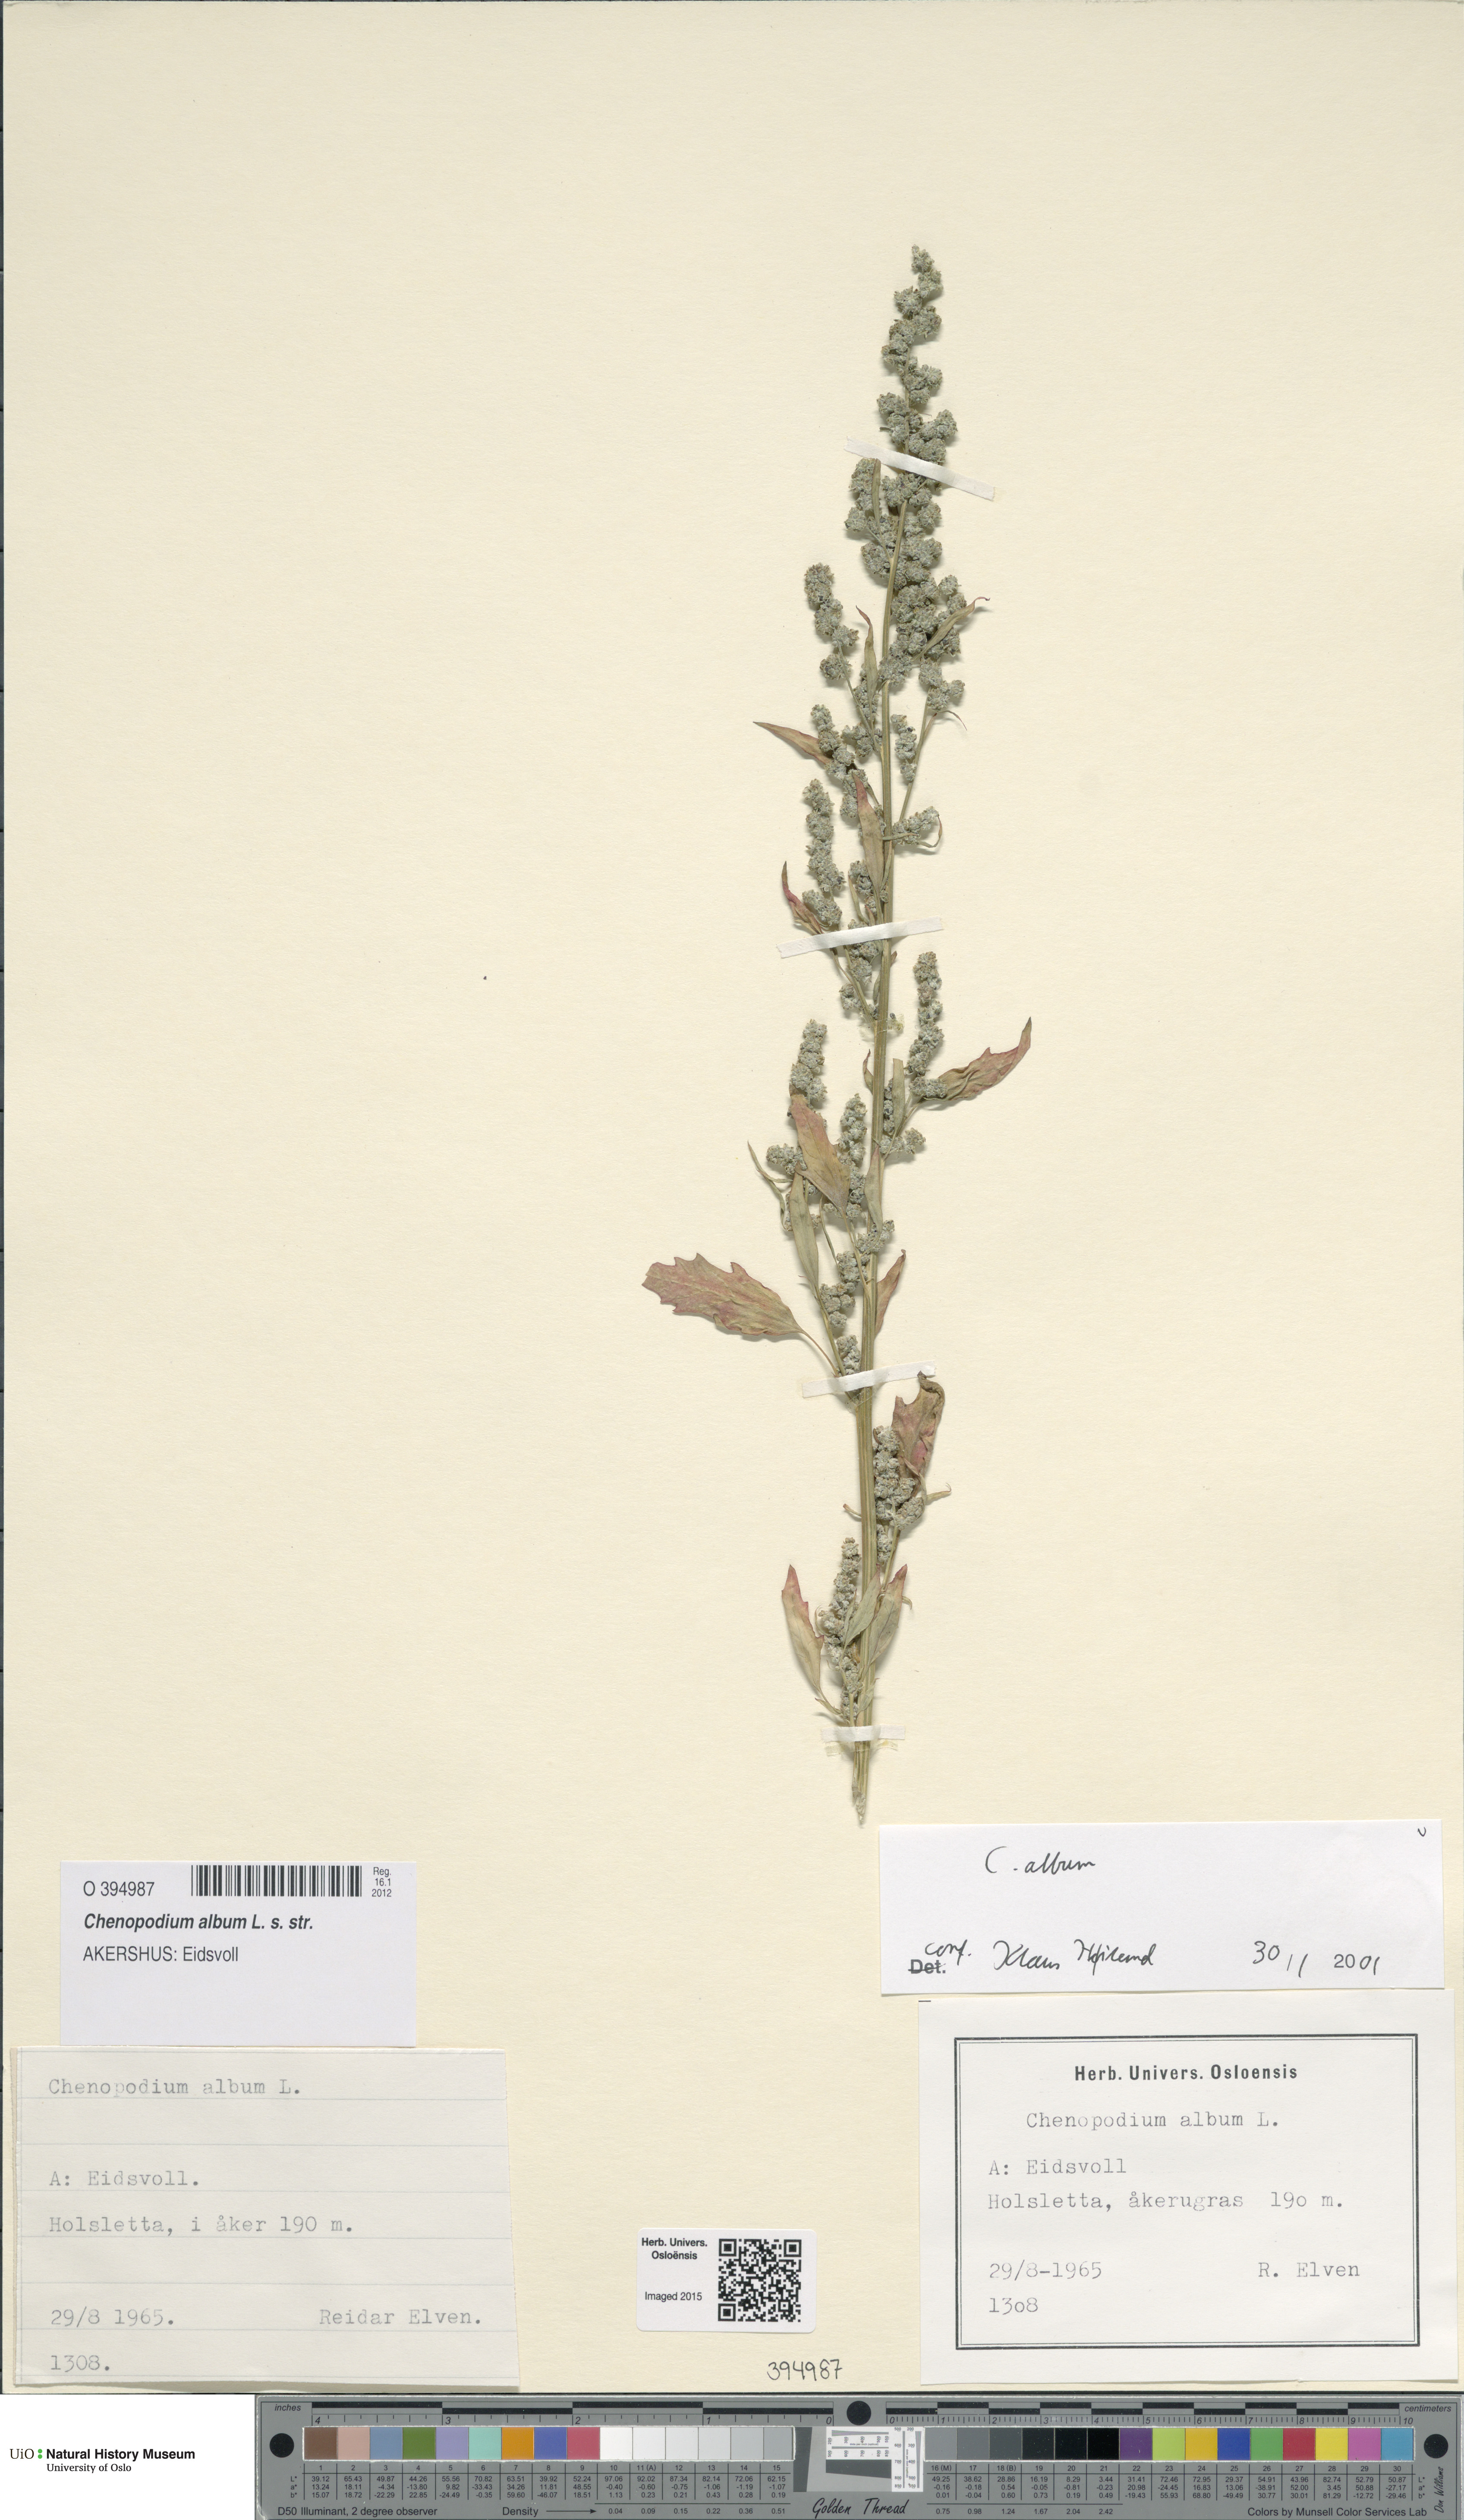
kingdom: Plantae
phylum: Tracheophyta
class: Magnoliopsida
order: Caryophyllales
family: Amaranthaceae
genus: Chenopodium
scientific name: Chenopodium album
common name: Fat-hen
